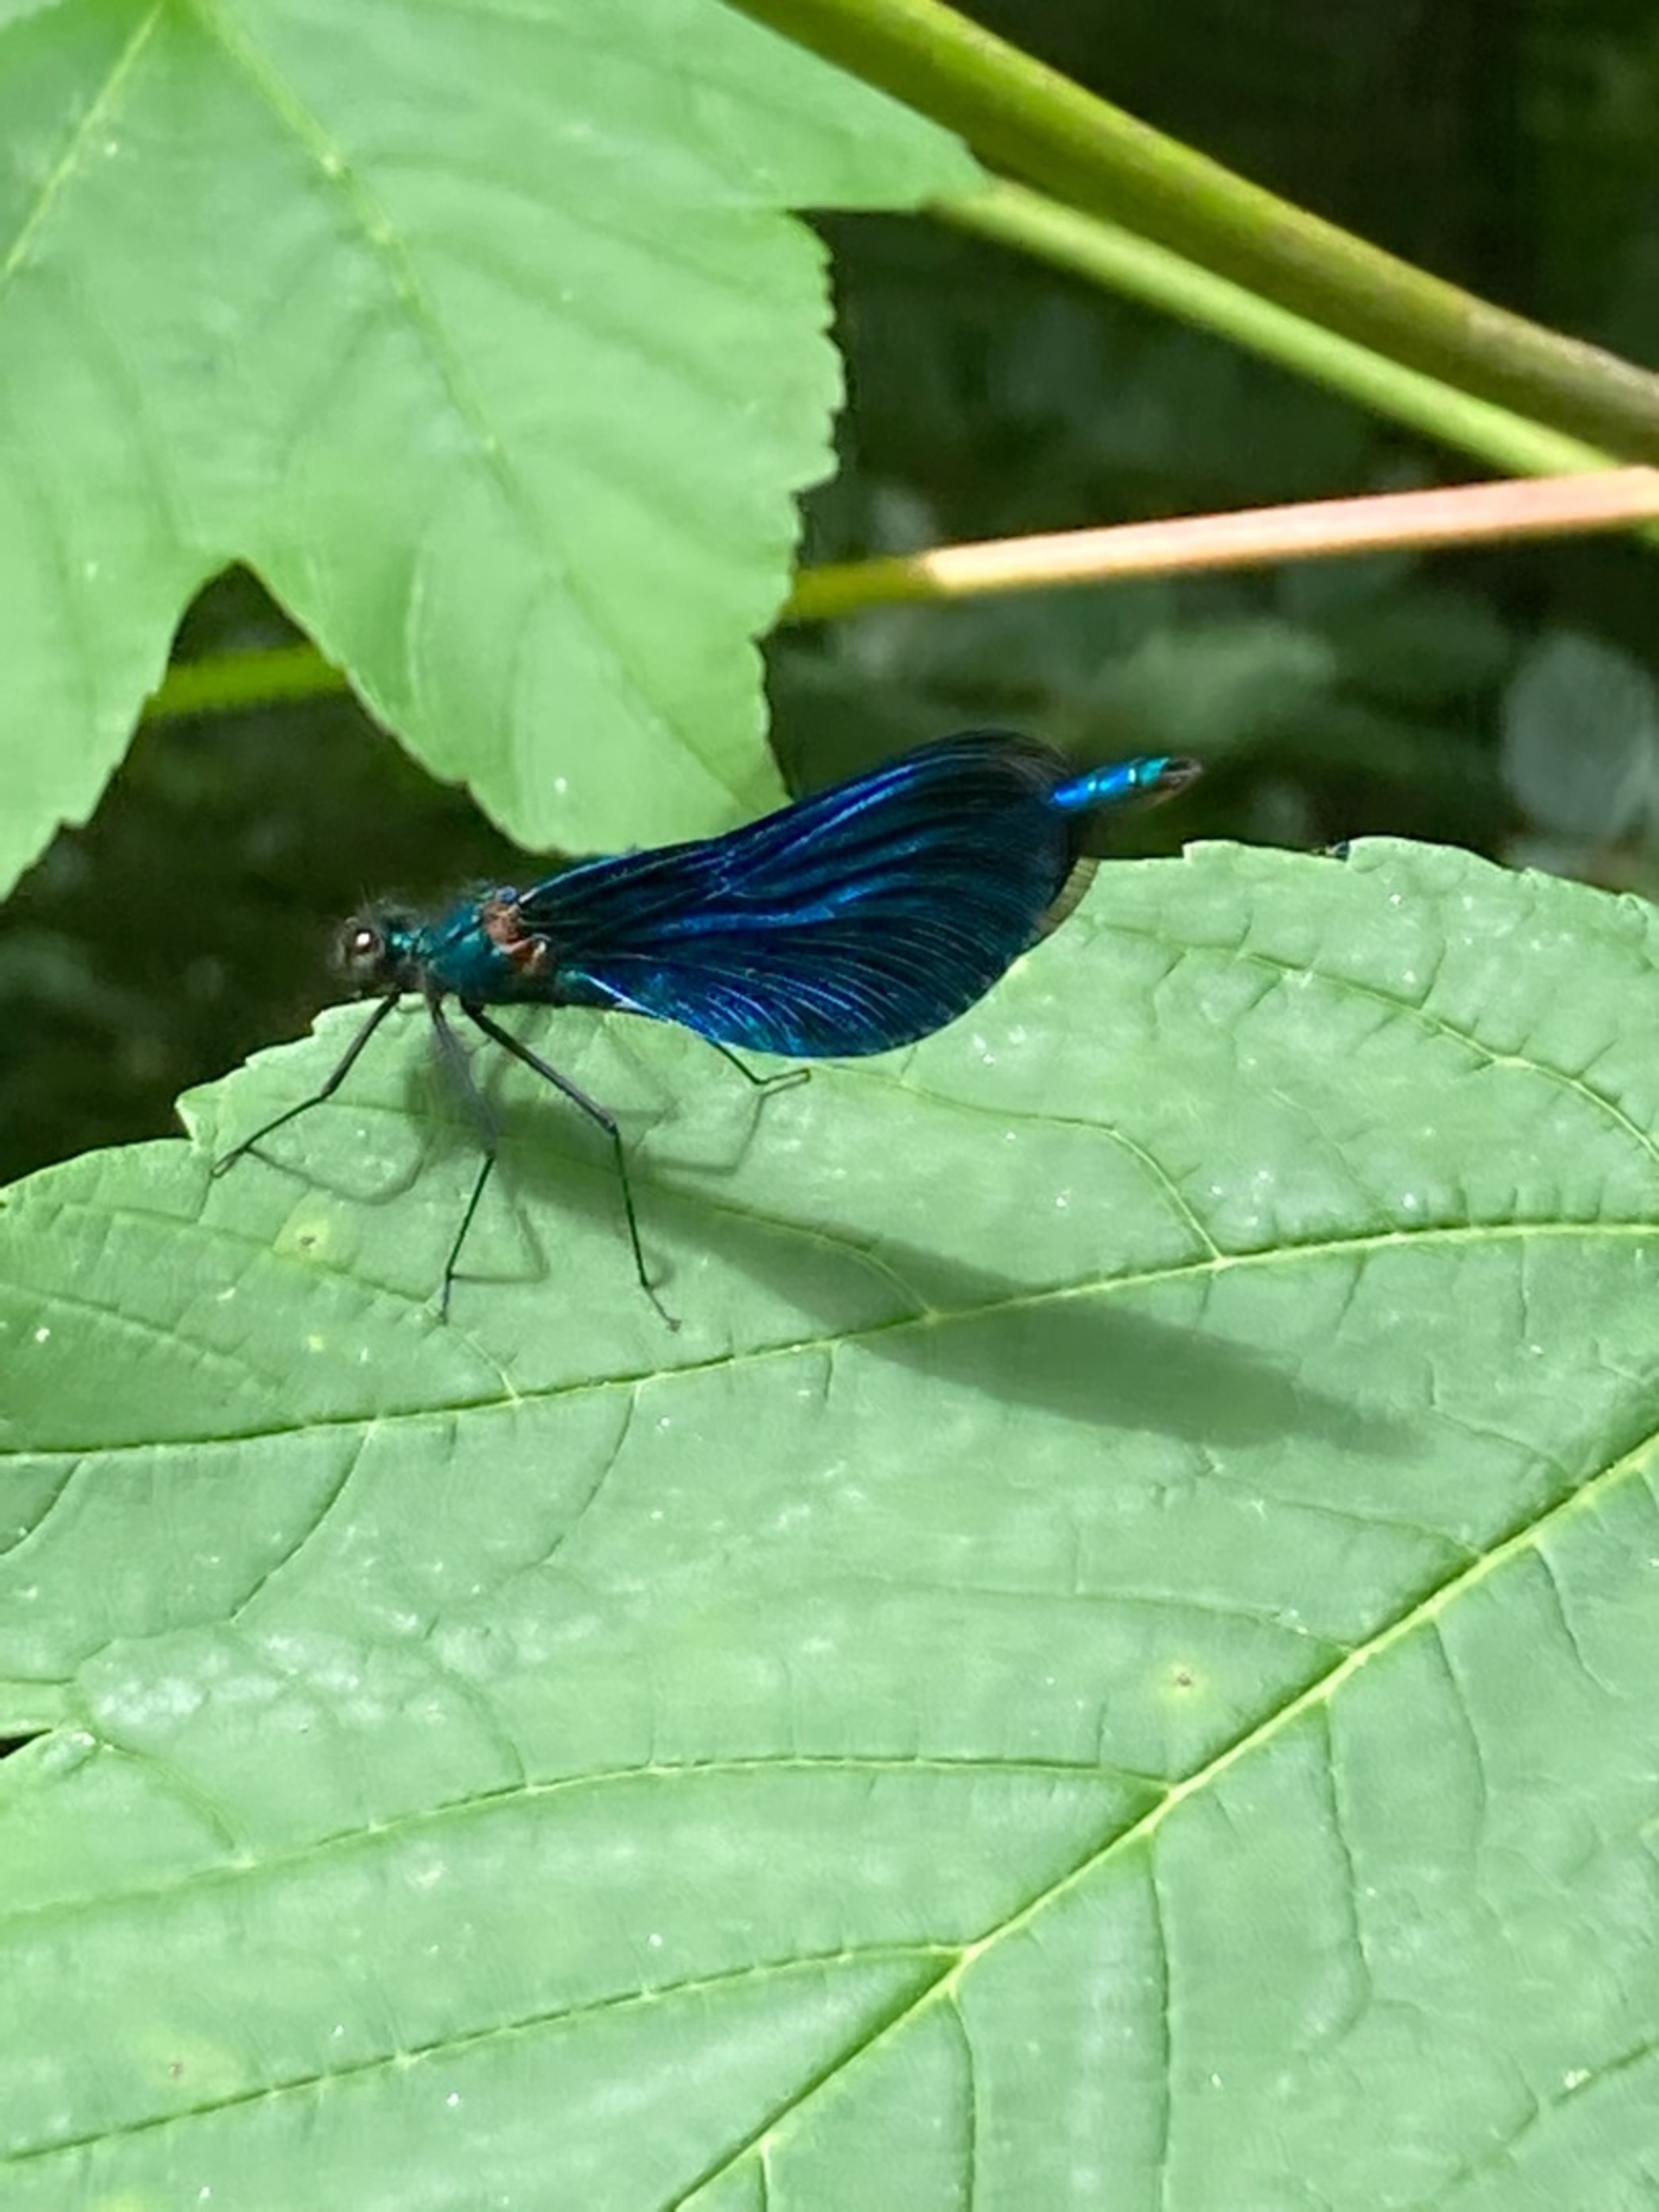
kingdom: Animalia
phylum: Arthropoda
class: Insecta
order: Odonata
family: Calopterygidae
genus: Calopteryx
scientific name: Calopteryx virgo
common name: Blåvinget pragtvandnymfe
